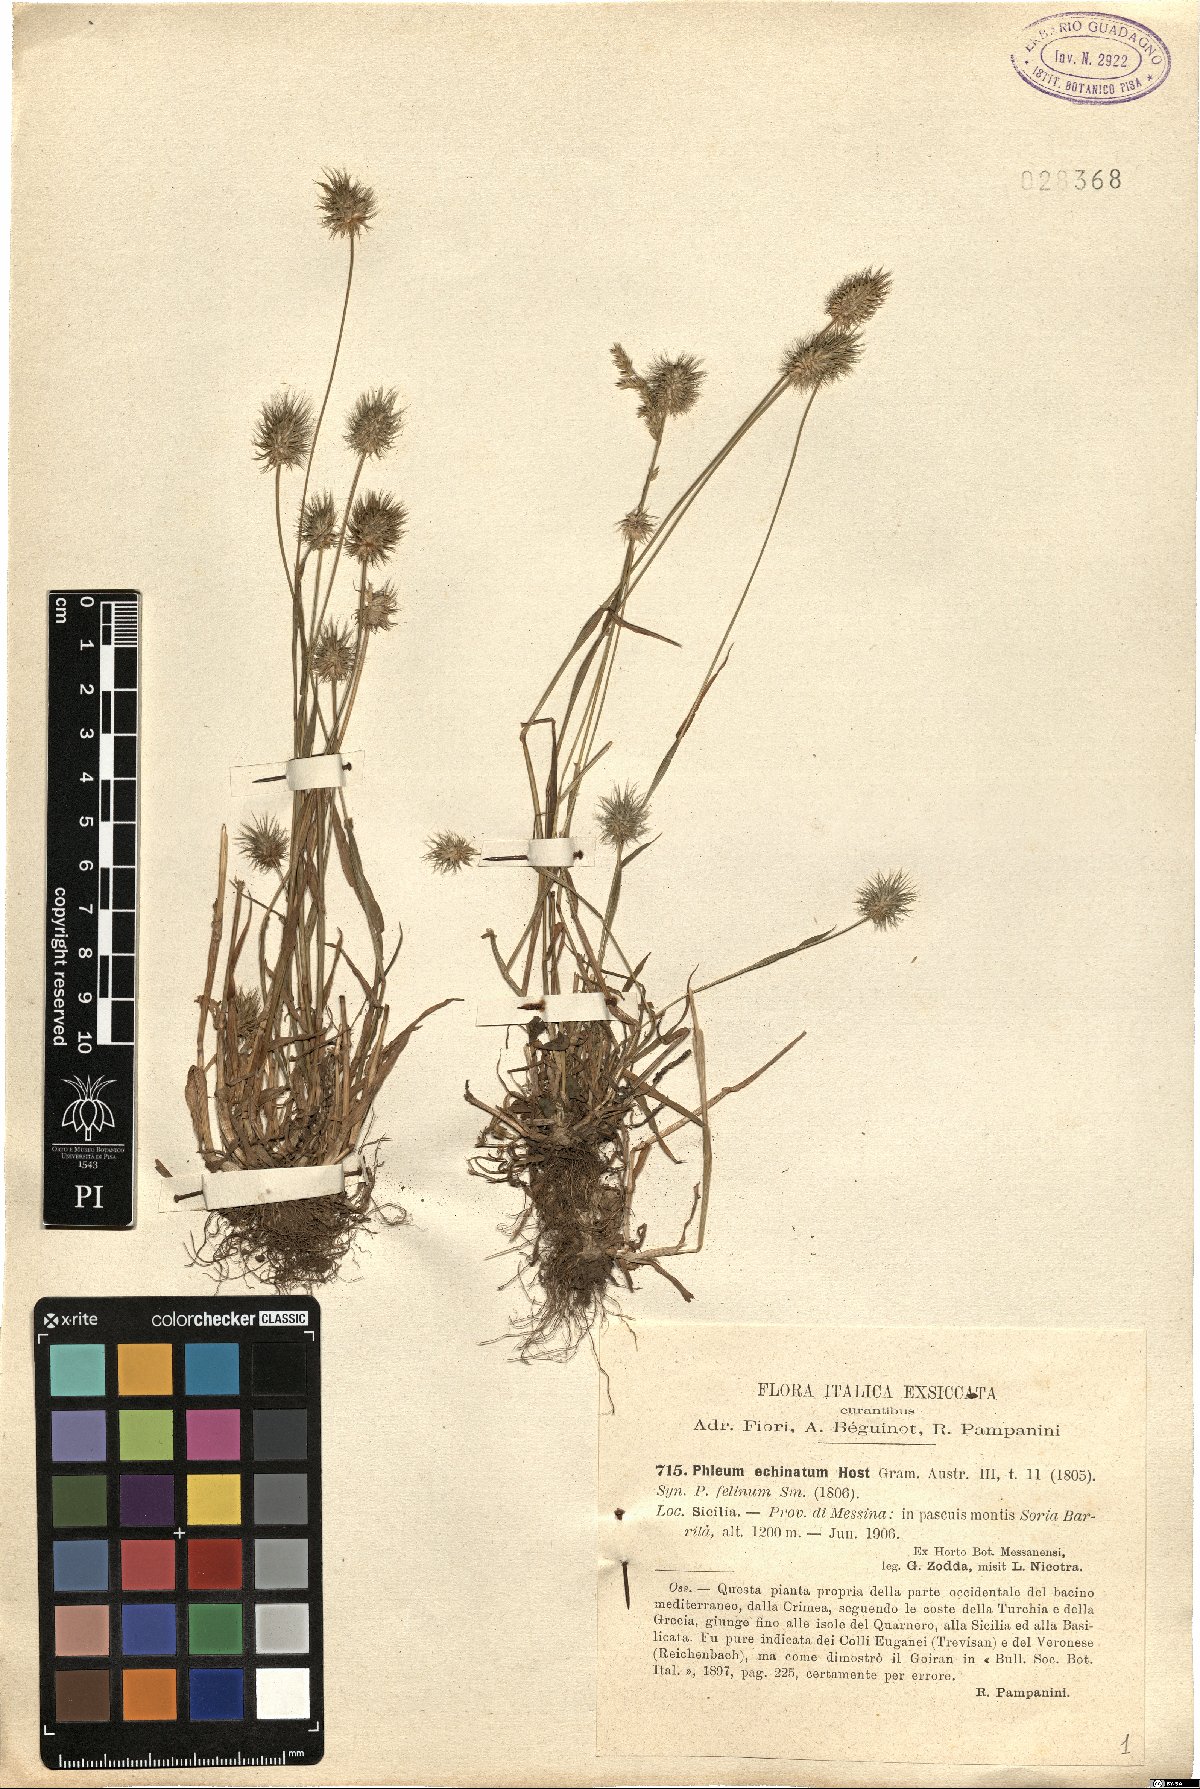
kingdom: Plantae
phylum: Tracheophyta
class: Liliopsida
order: Poales
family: Poaceae
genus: Phleum
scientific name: Phleum echinatum
